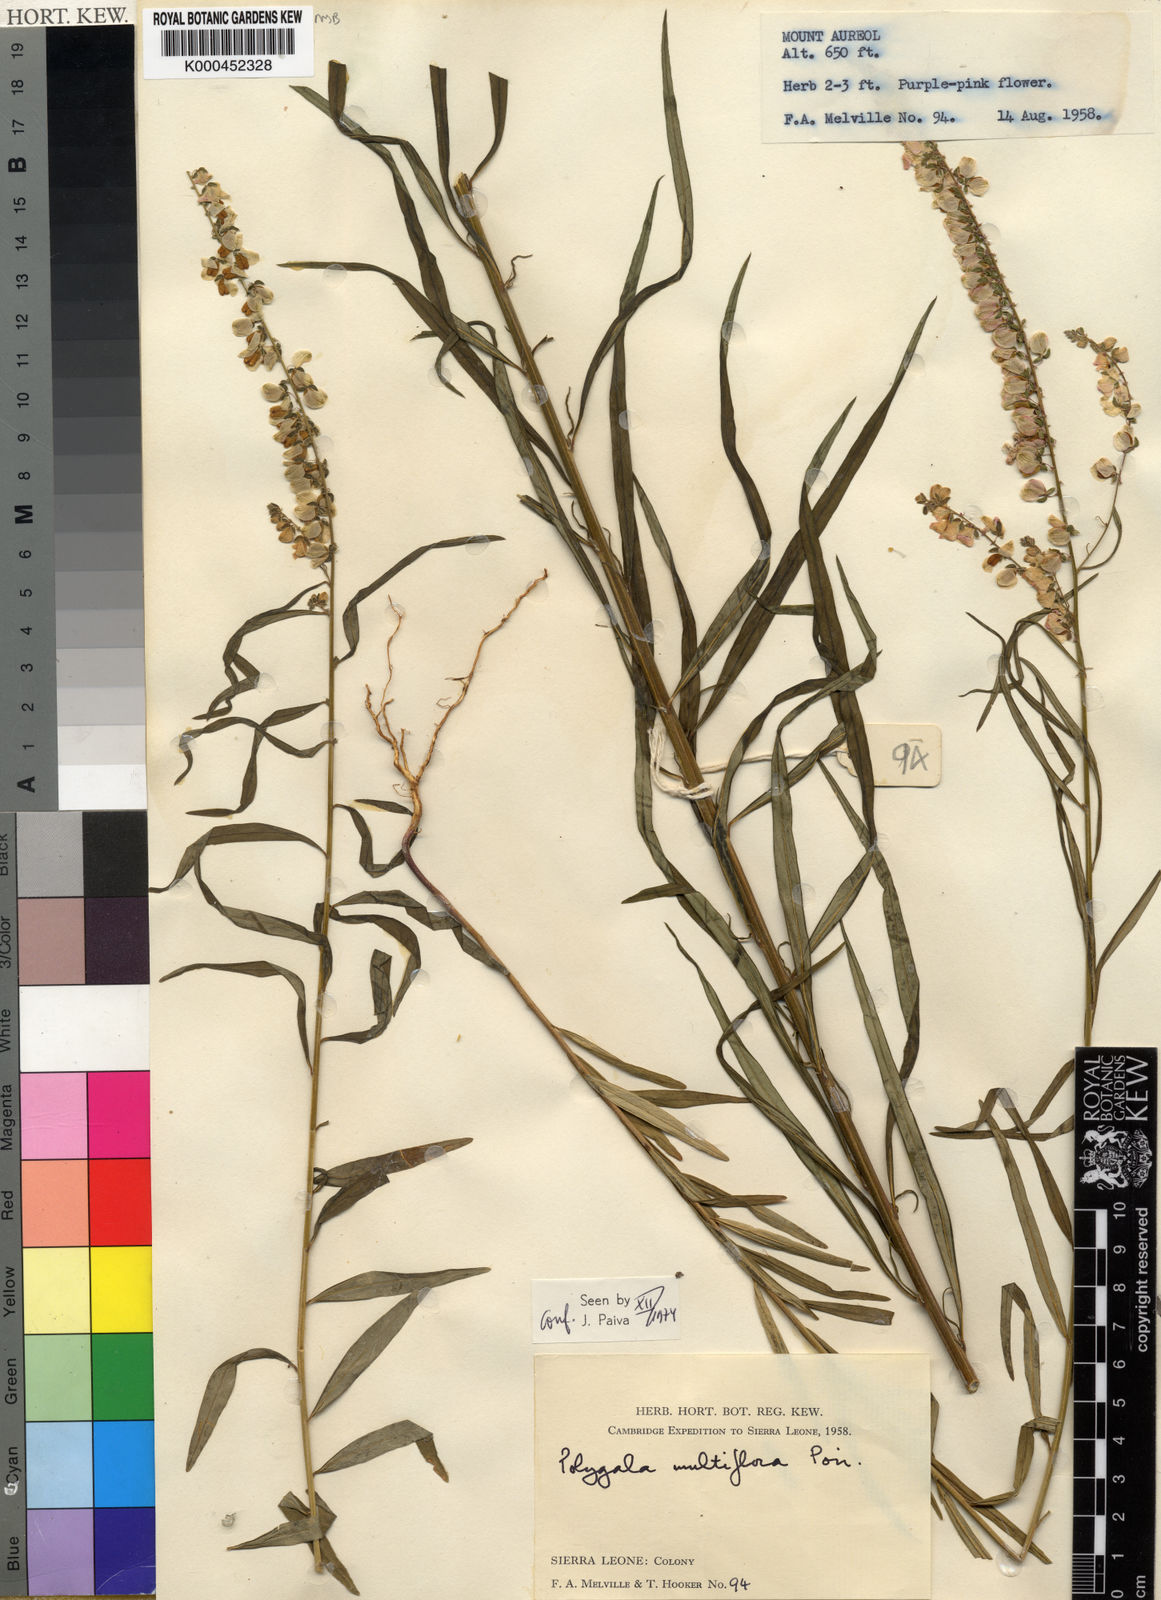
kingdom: Plantae
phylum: Tracheophyta
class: Magnoliopsida
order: Fabales
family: Polygalaceae
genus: Polygala
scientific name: Polygala multiflora
